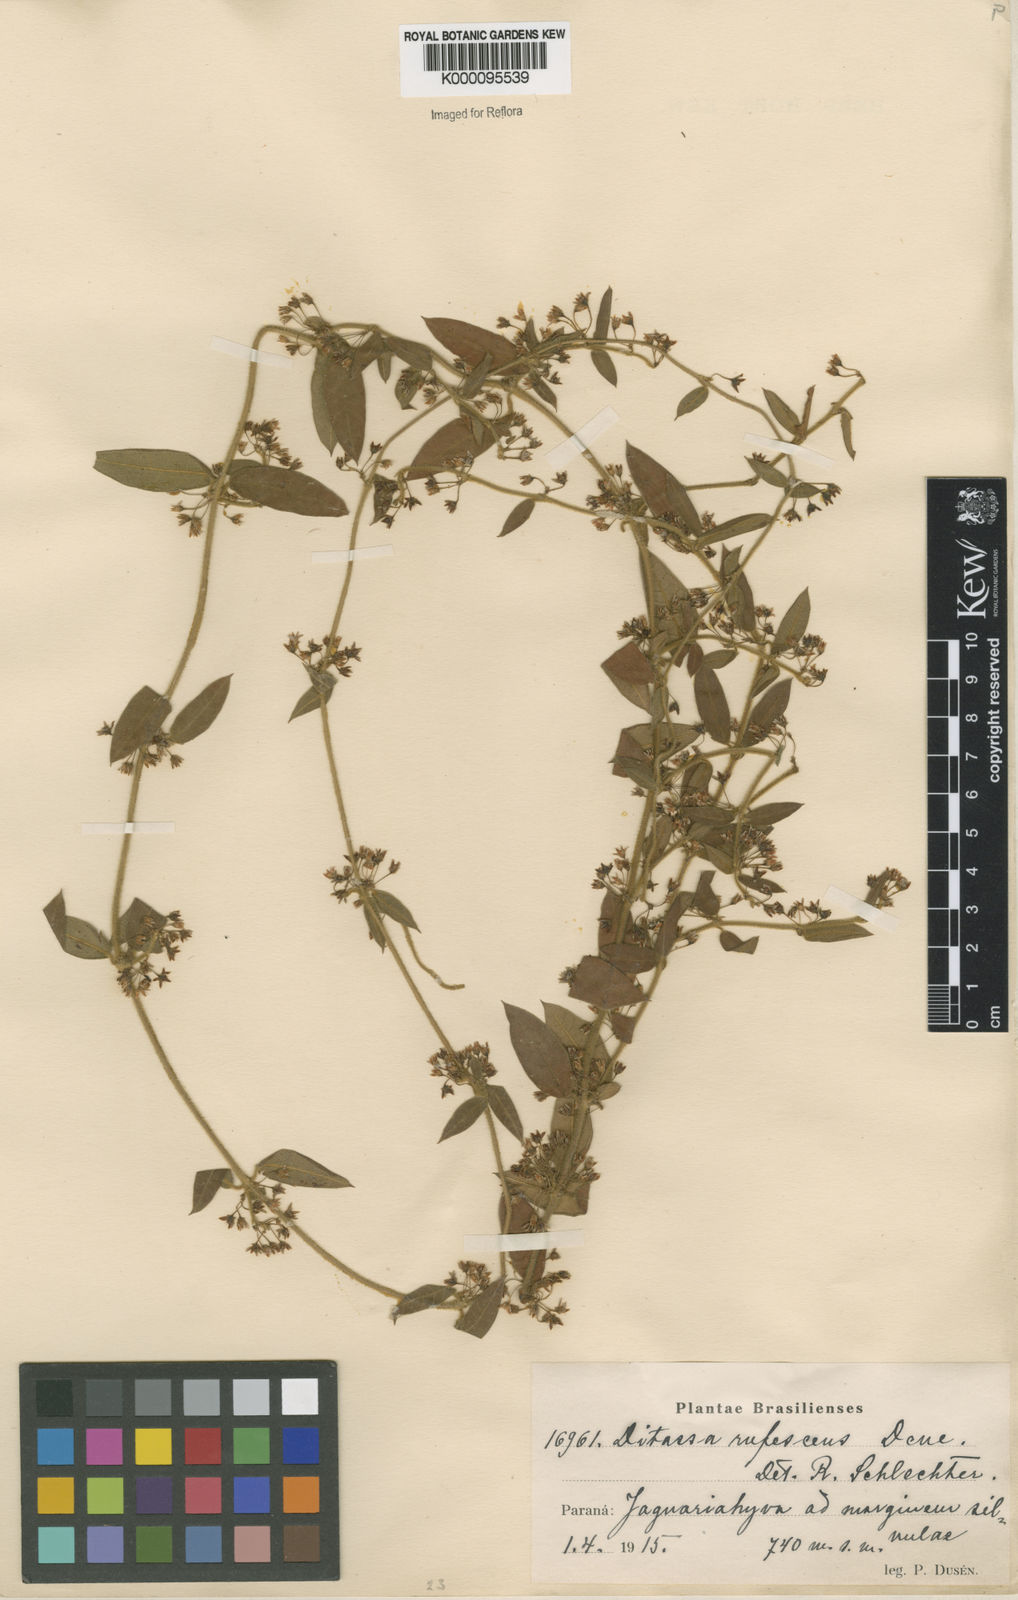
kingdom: Plantae
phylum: Tracheophyta
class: Magnoliopsida
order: Gentianales
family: Apocynaceae
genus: Ditassa
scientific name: Ditassa hispida
